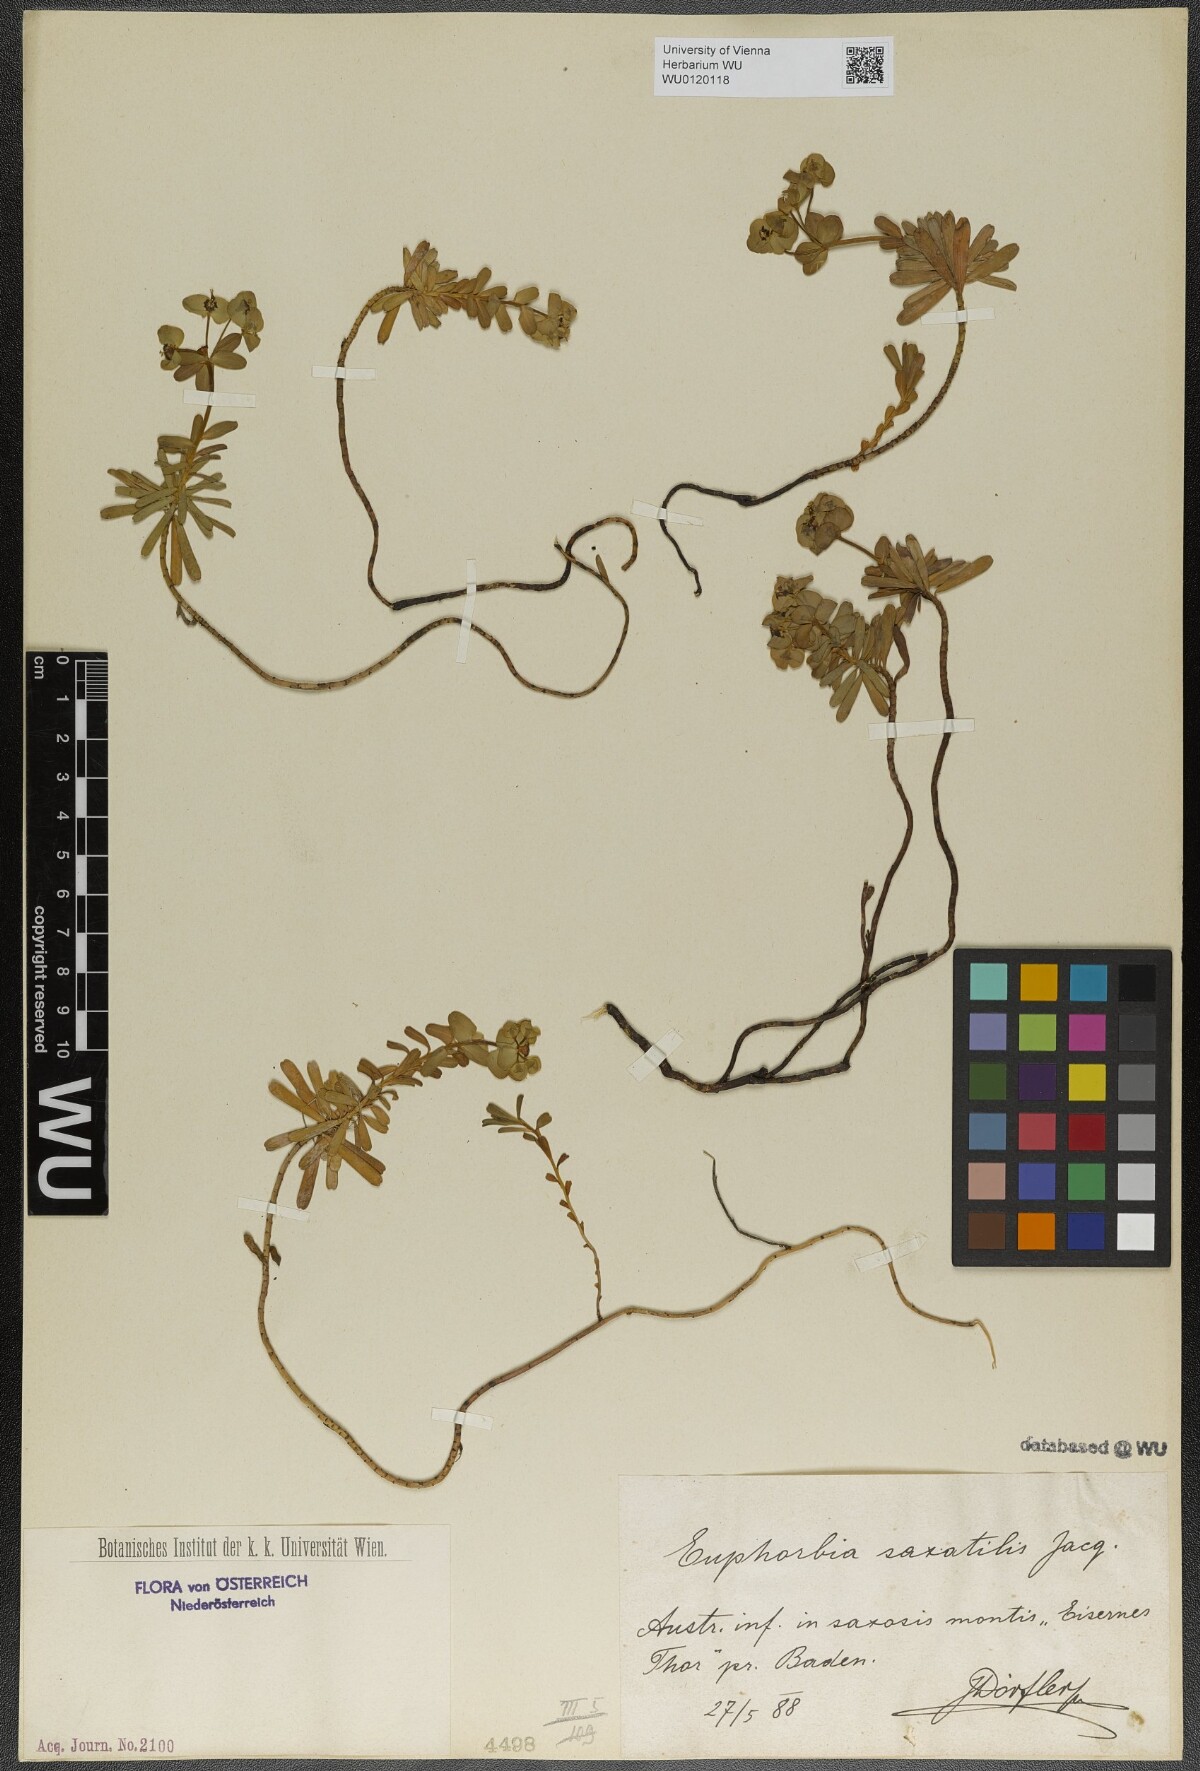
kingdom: Plantae
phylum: Tracheophyta
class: Magnoliopsida
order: Malpighiales
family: Euphorbiaceae
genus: Euphorbia
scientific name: Euphorbia saxatilis
